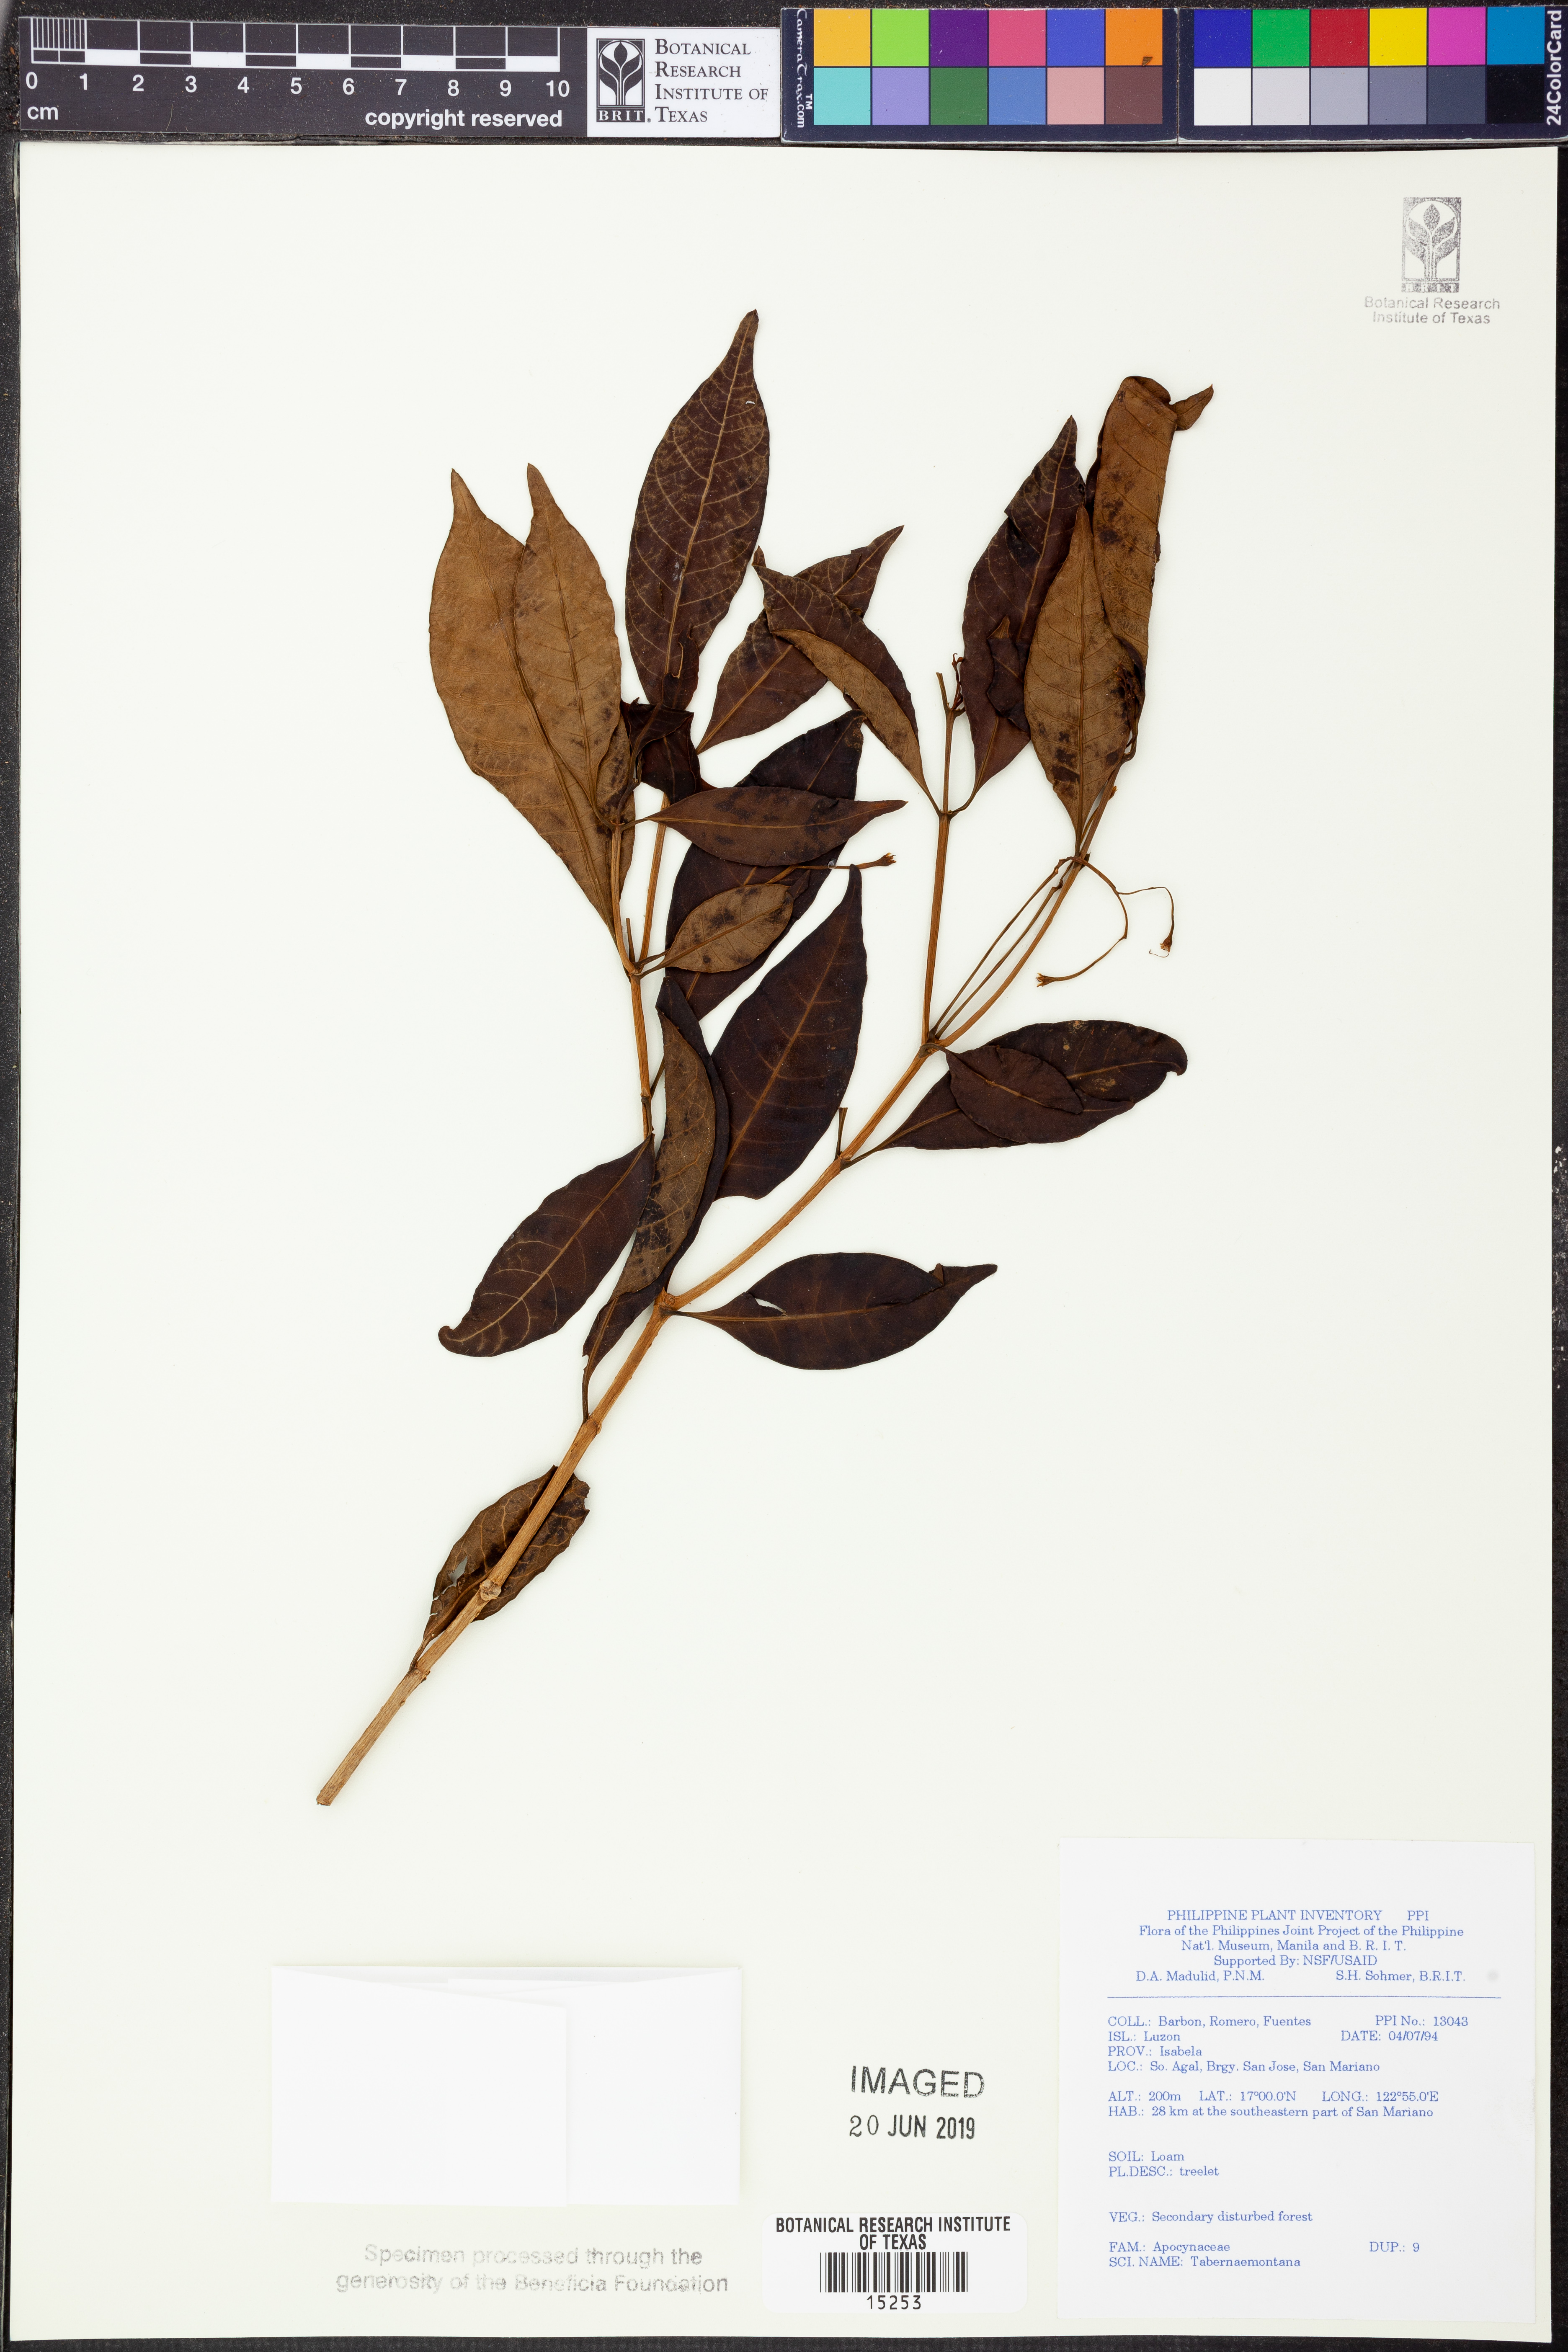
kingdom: Plantae
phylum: Tracheophyta
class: Magnoliopsida
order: Gentianales
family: Apocynaceae
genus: Tabernaemontana
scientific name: Tabernaemontana
